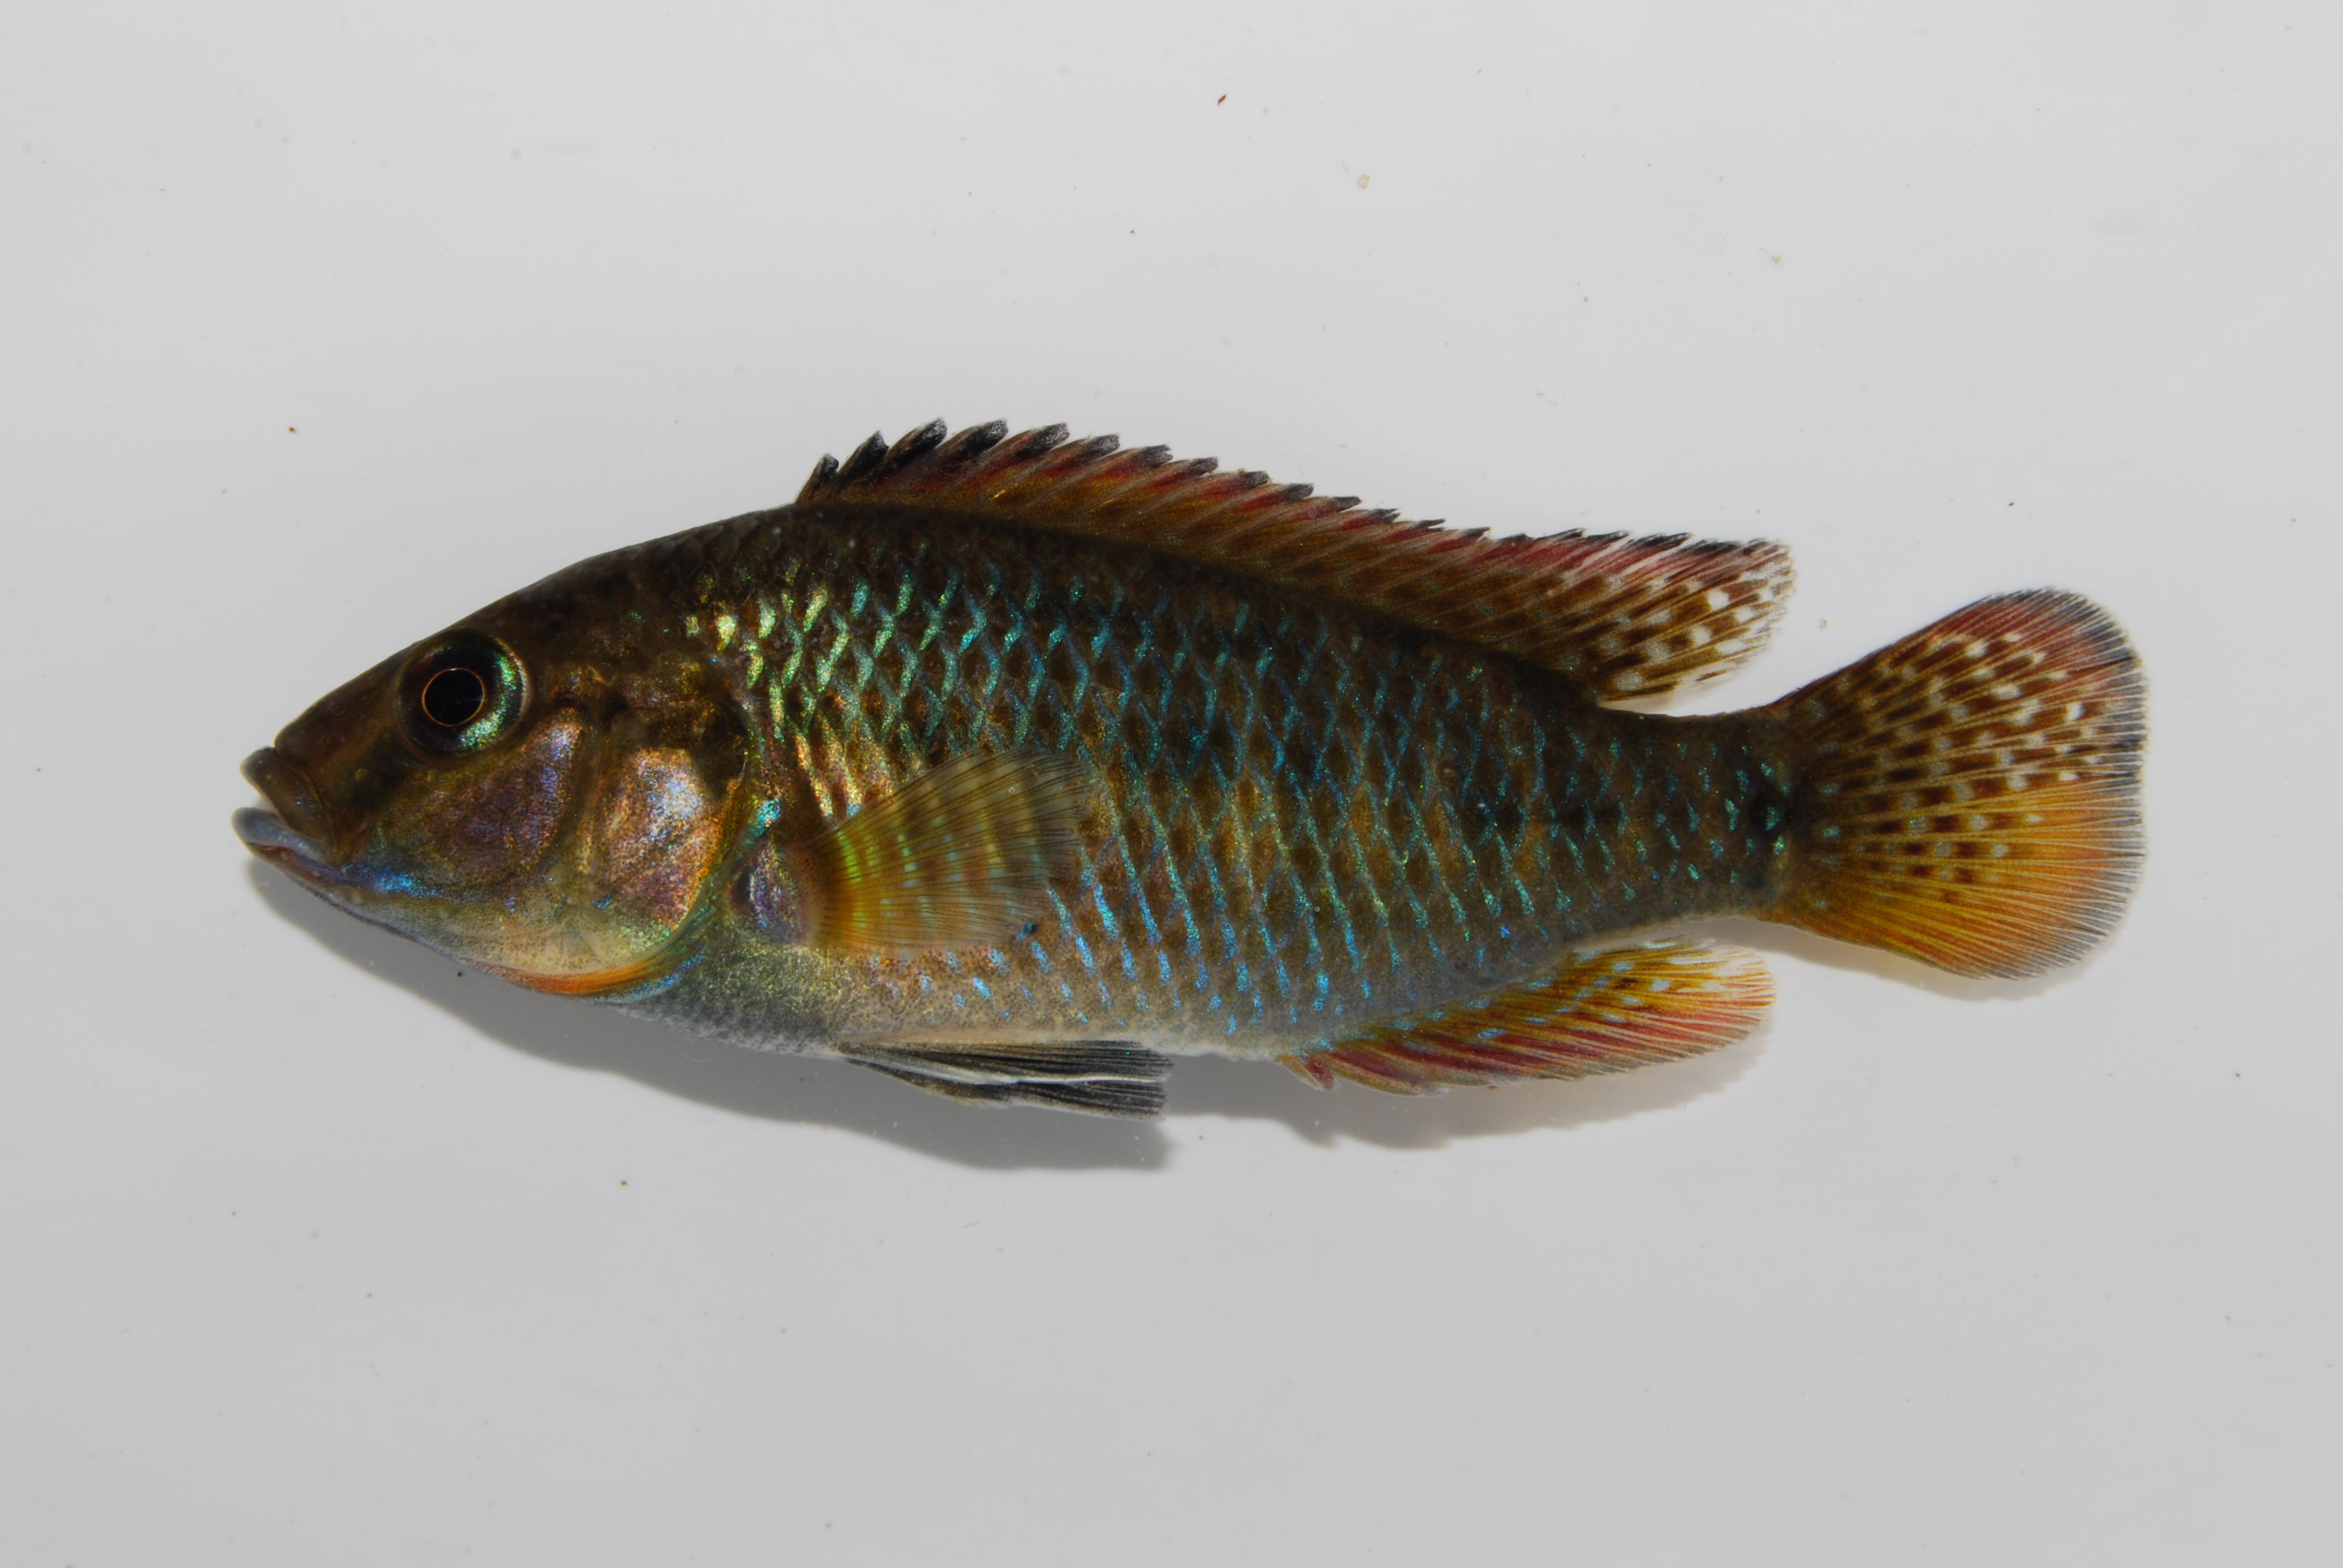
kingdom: Animalia
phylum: Chordata
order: Perciformes
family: Cichlidae
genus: Pseudocrenilabrus
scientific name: Pseudocrenilabrus philander
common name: Southern mouthbrooder
